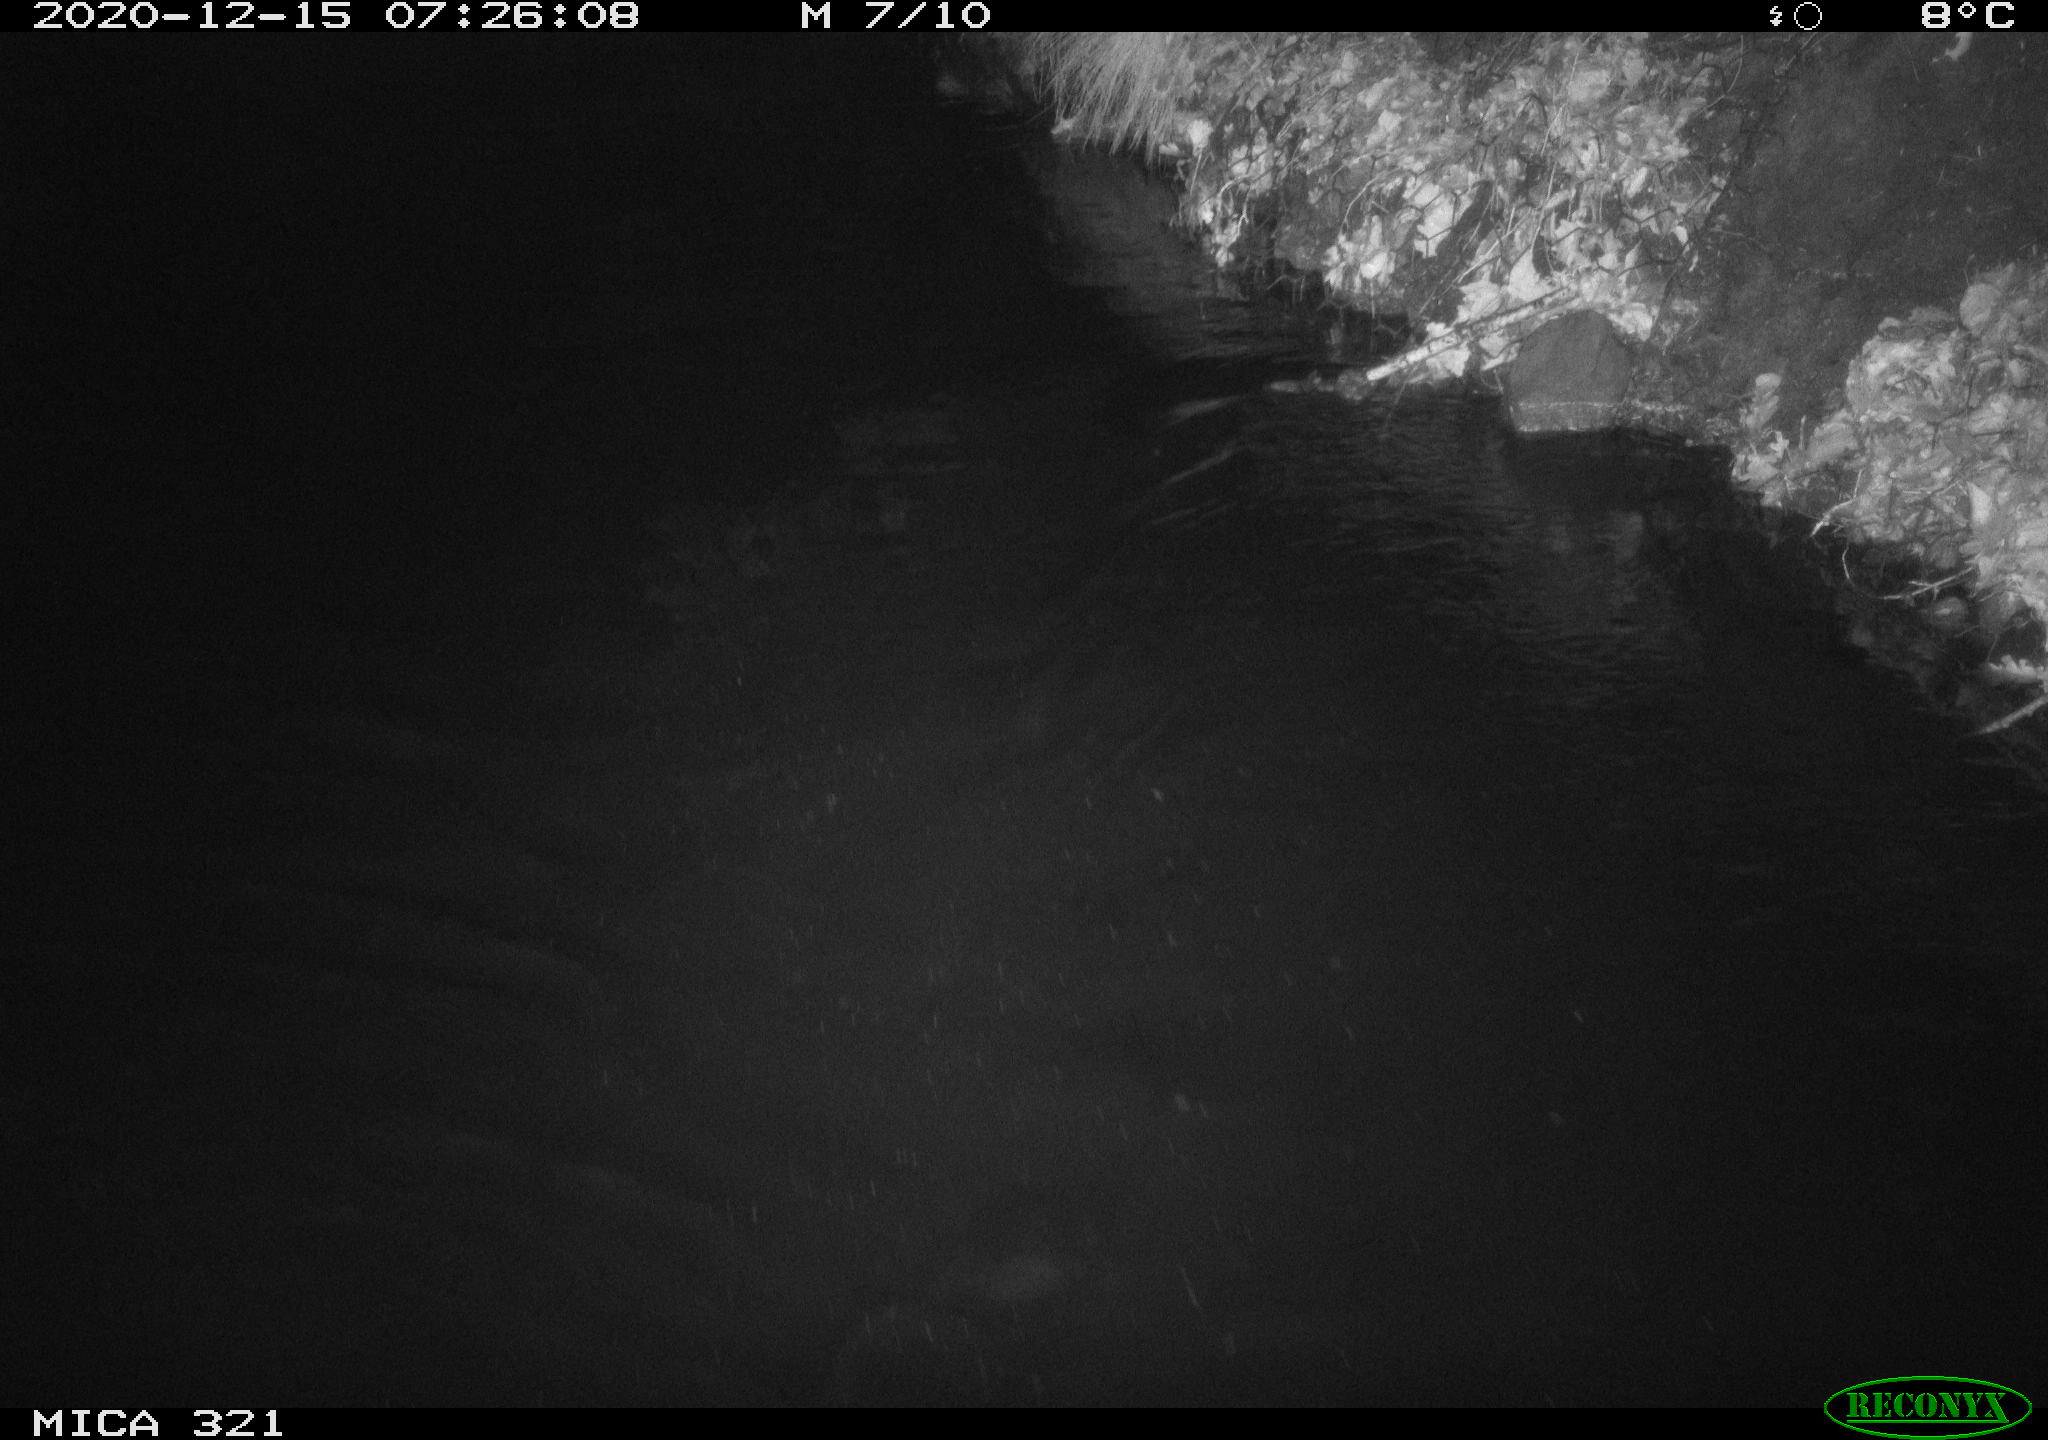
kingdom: Animalia
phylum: Chordata
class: Aves
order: Anseriformes
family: Anatidae
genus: Anas
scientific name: Anas platyrhynchos
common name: Mallard
